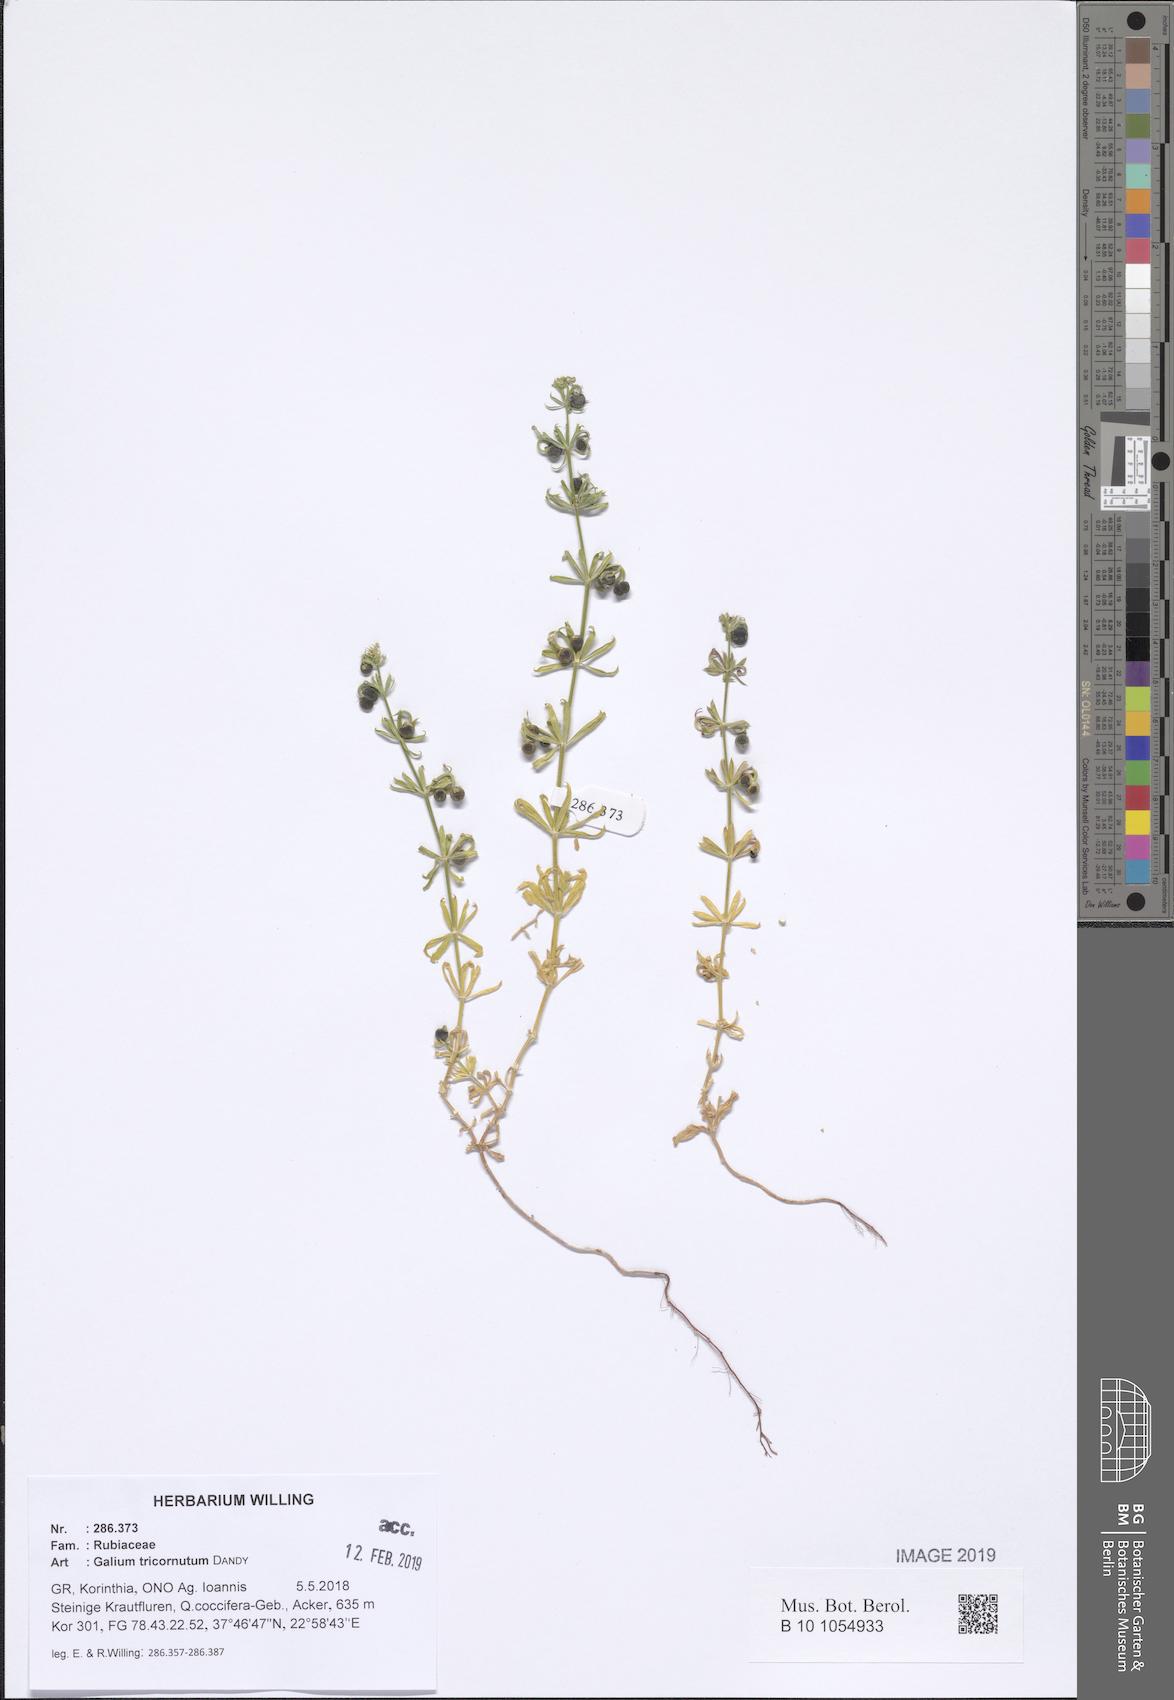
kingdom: Plantae
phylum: Tracheophyta
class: Magnoliopsida
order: Gentianales
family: Rubiaceae
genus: Galium
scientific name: Galium tricornutum
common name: Corn cleavers
